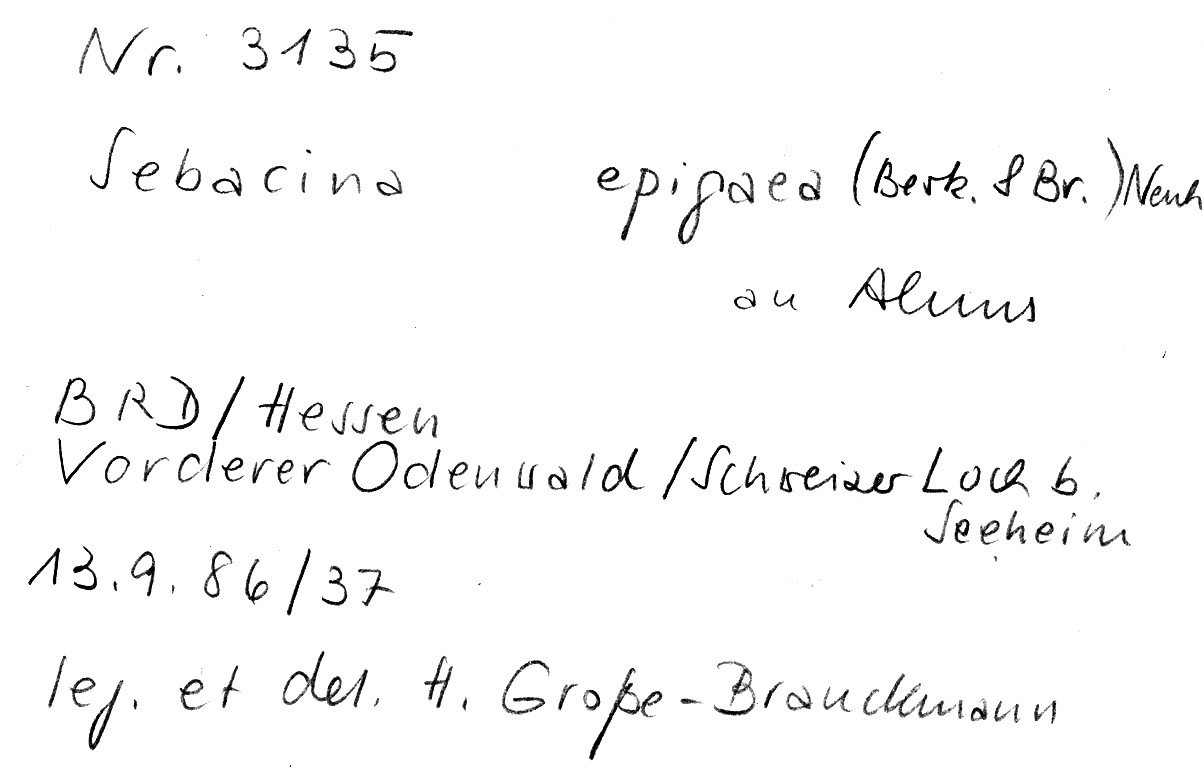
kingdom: Plantae
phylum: Tracheophyta
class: Magnoliopsida
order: Fagales
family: Betulaceae
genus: Alnus
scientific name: Alnus
